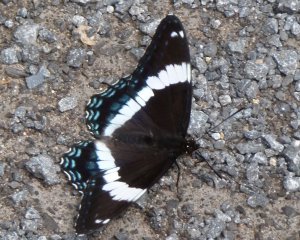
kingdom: Animalia
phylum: Arthropoda
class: Insecta
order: Lepidoptera
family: Nymphalidae
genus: Limenitis
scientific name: Limenitis arthemis
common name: Red-spotted Admiral
